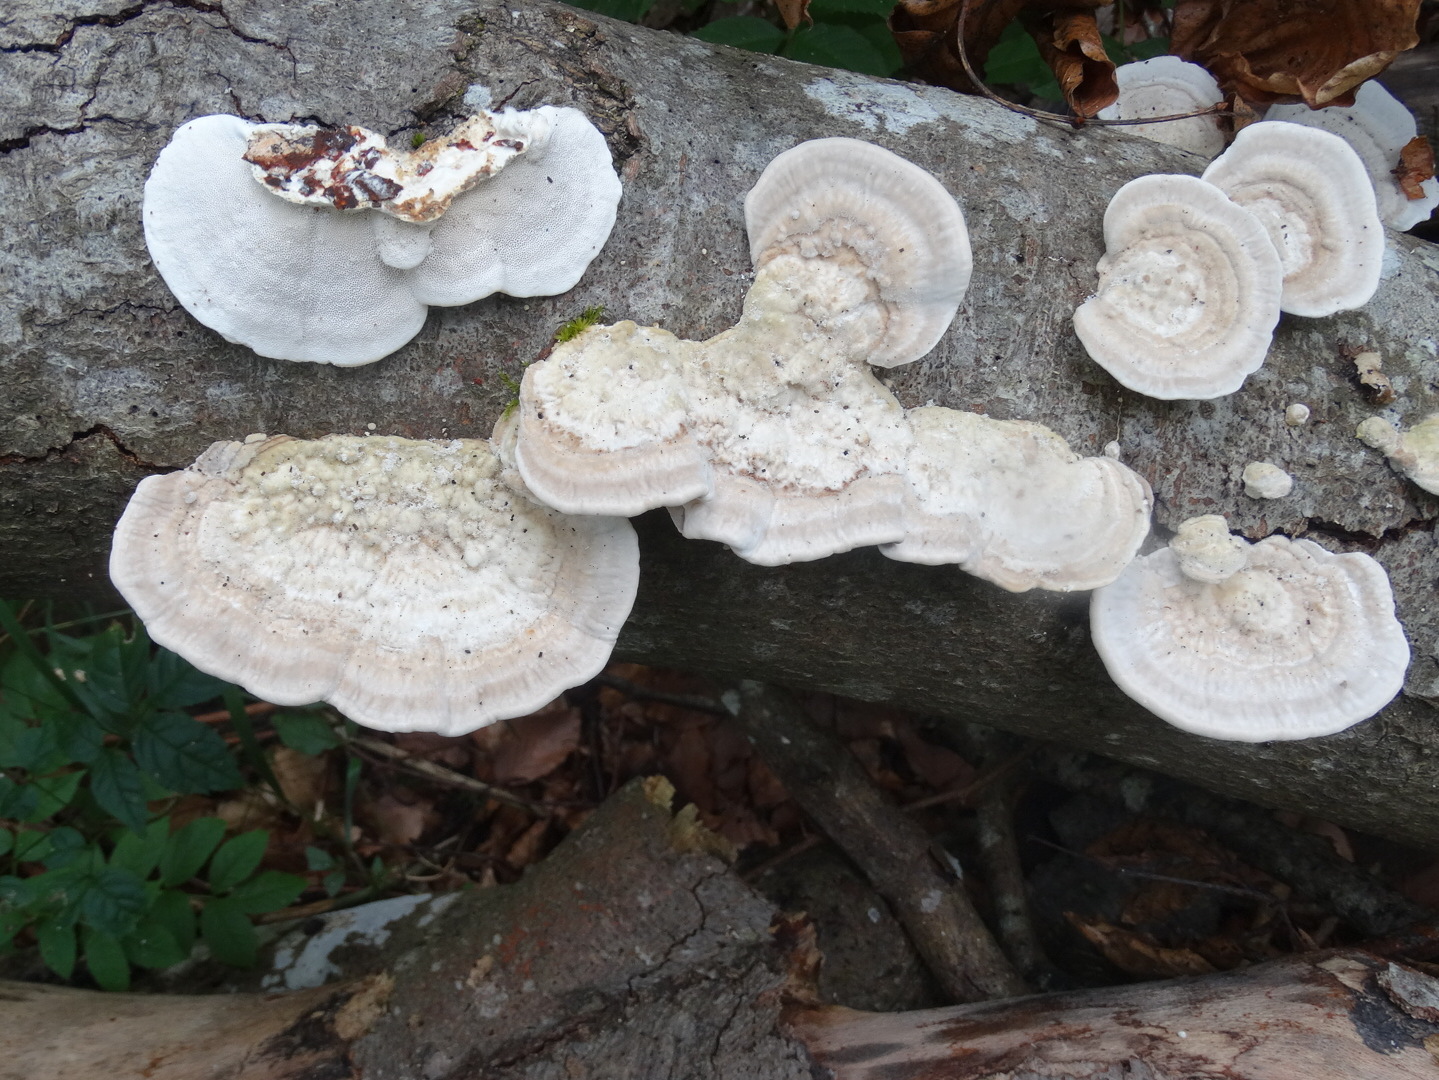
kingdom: Fungi
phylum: Basidiomycota
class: Agaricomycetes
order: Polyporales
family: Polyporaceae
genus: Trametes
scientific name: Trametes hirsuta
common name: håret læderporesvamp
